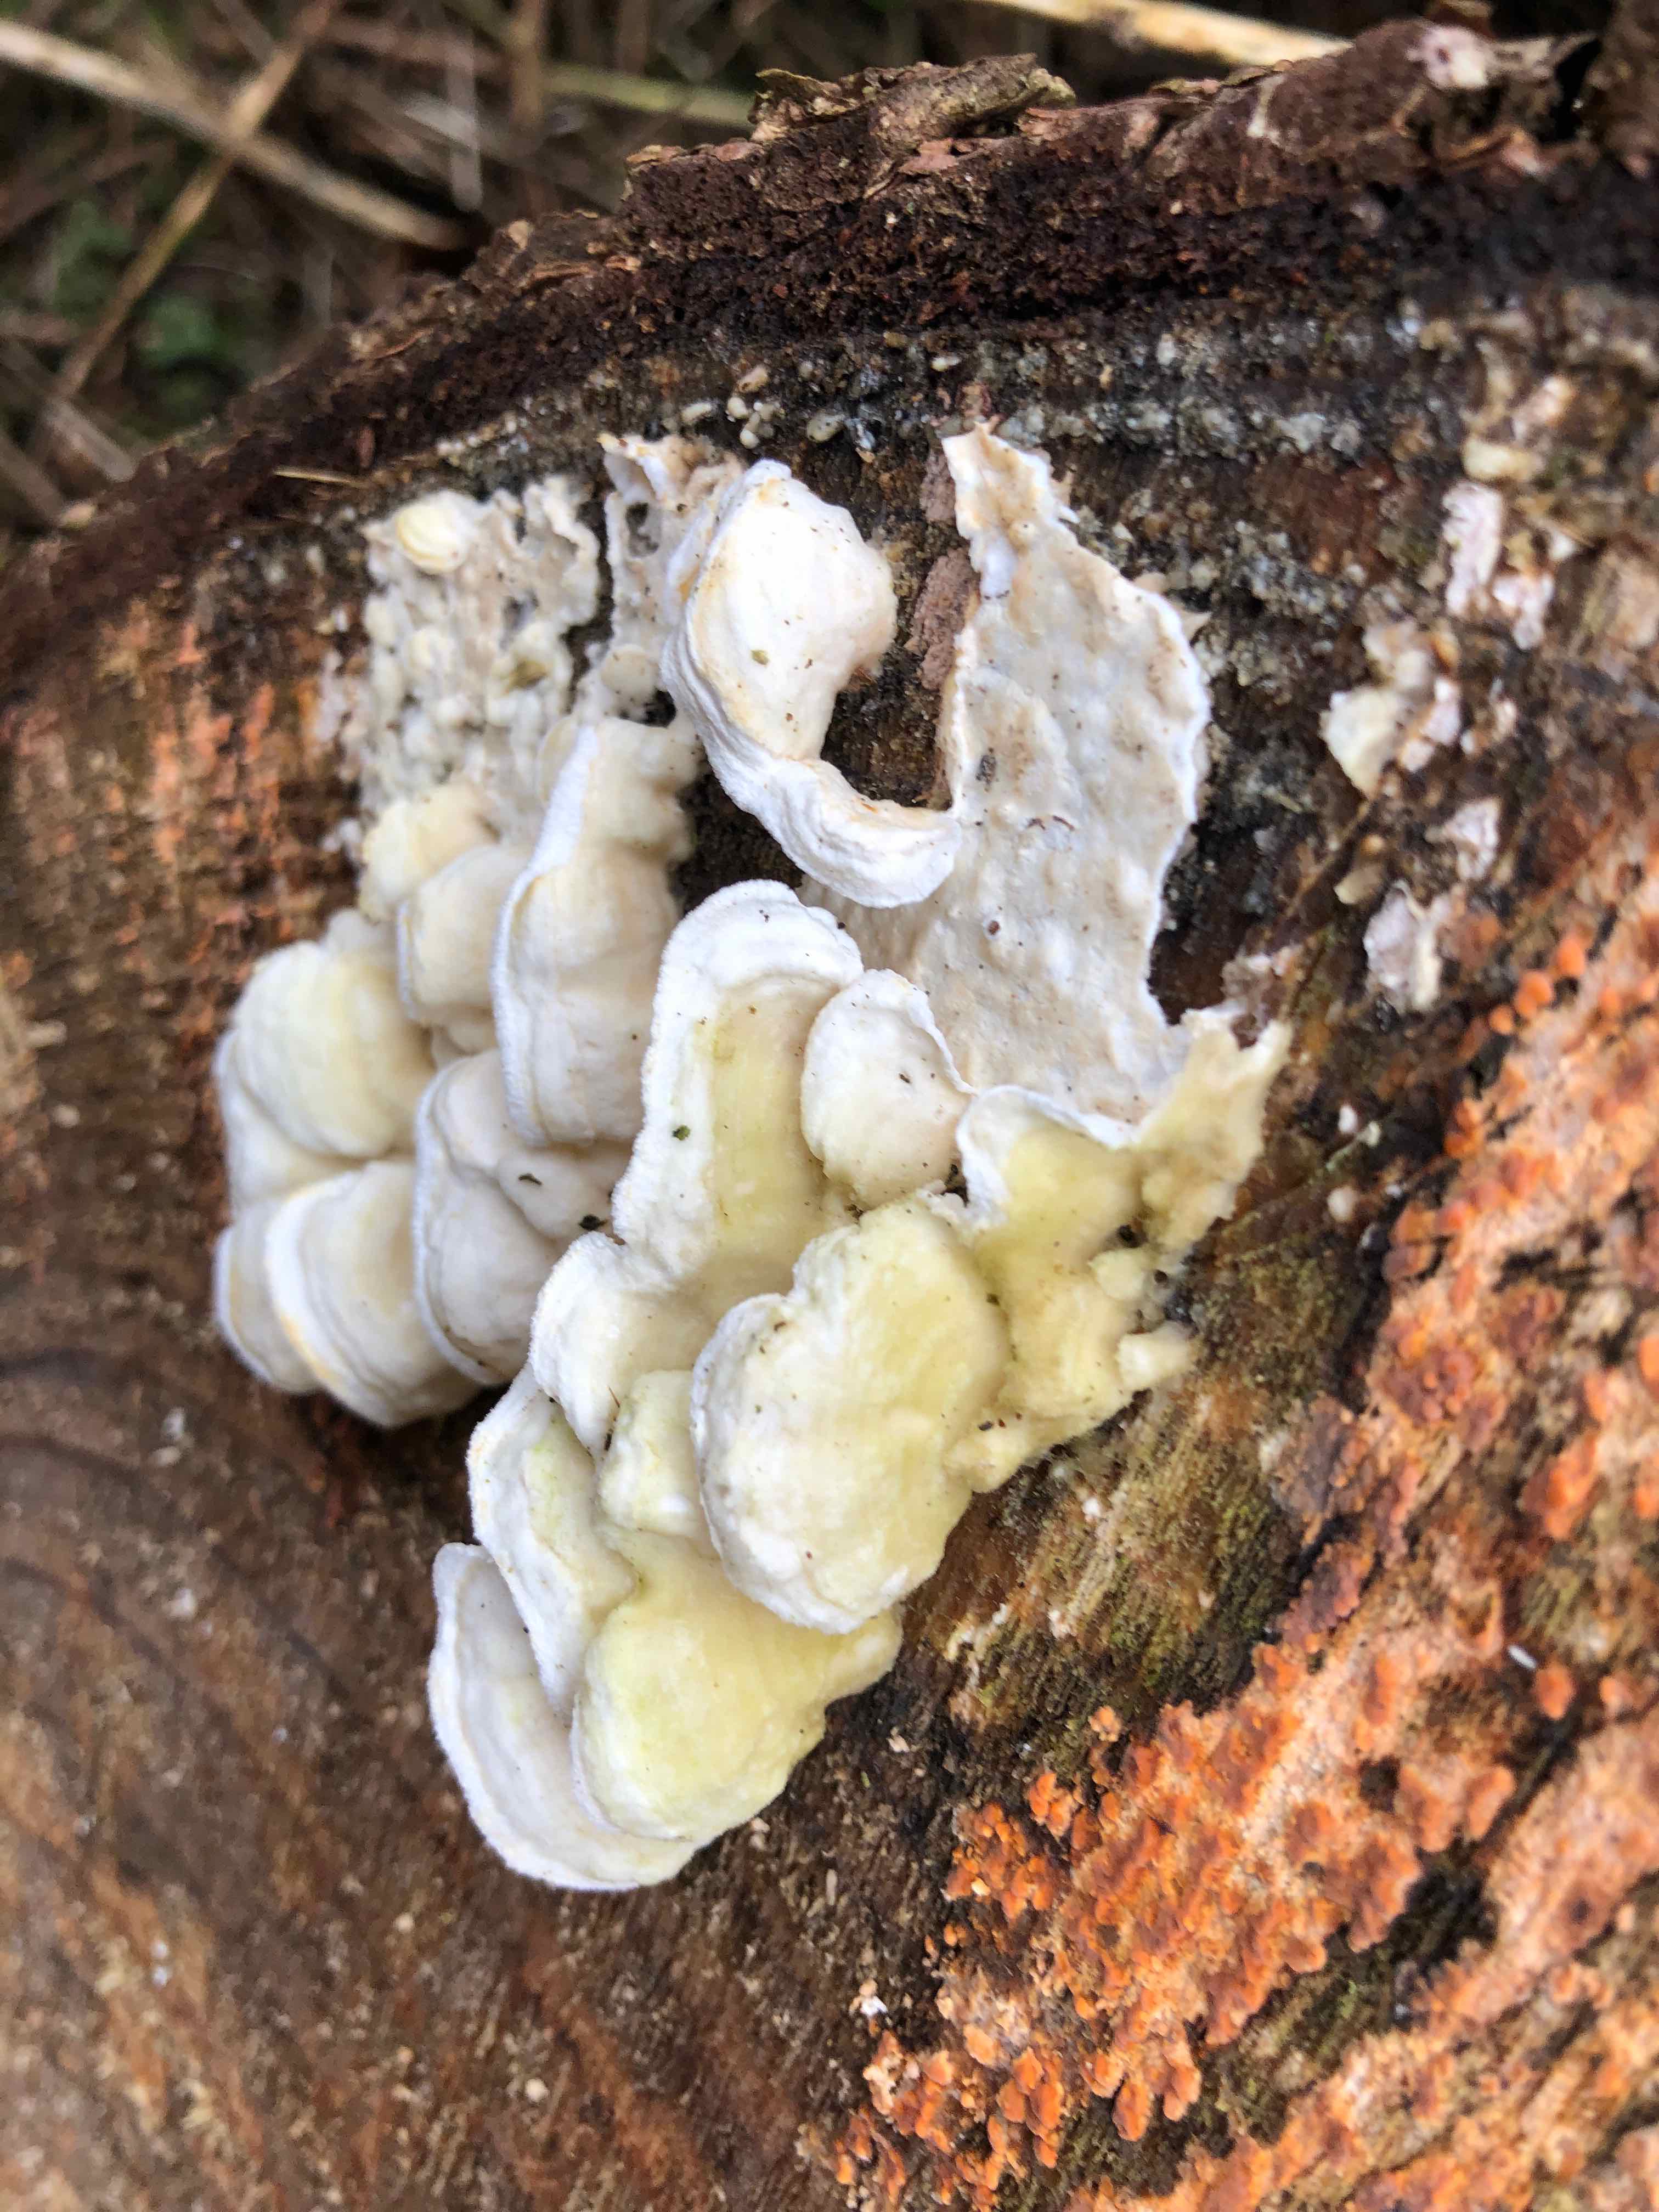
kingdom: Fungi
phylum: Basidiomycota
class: Agaricomycetes
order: Polyporales
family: Irpicaceae
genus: Byssomerulius
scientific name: Byssomerulius corium
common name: læder-åresvamp
